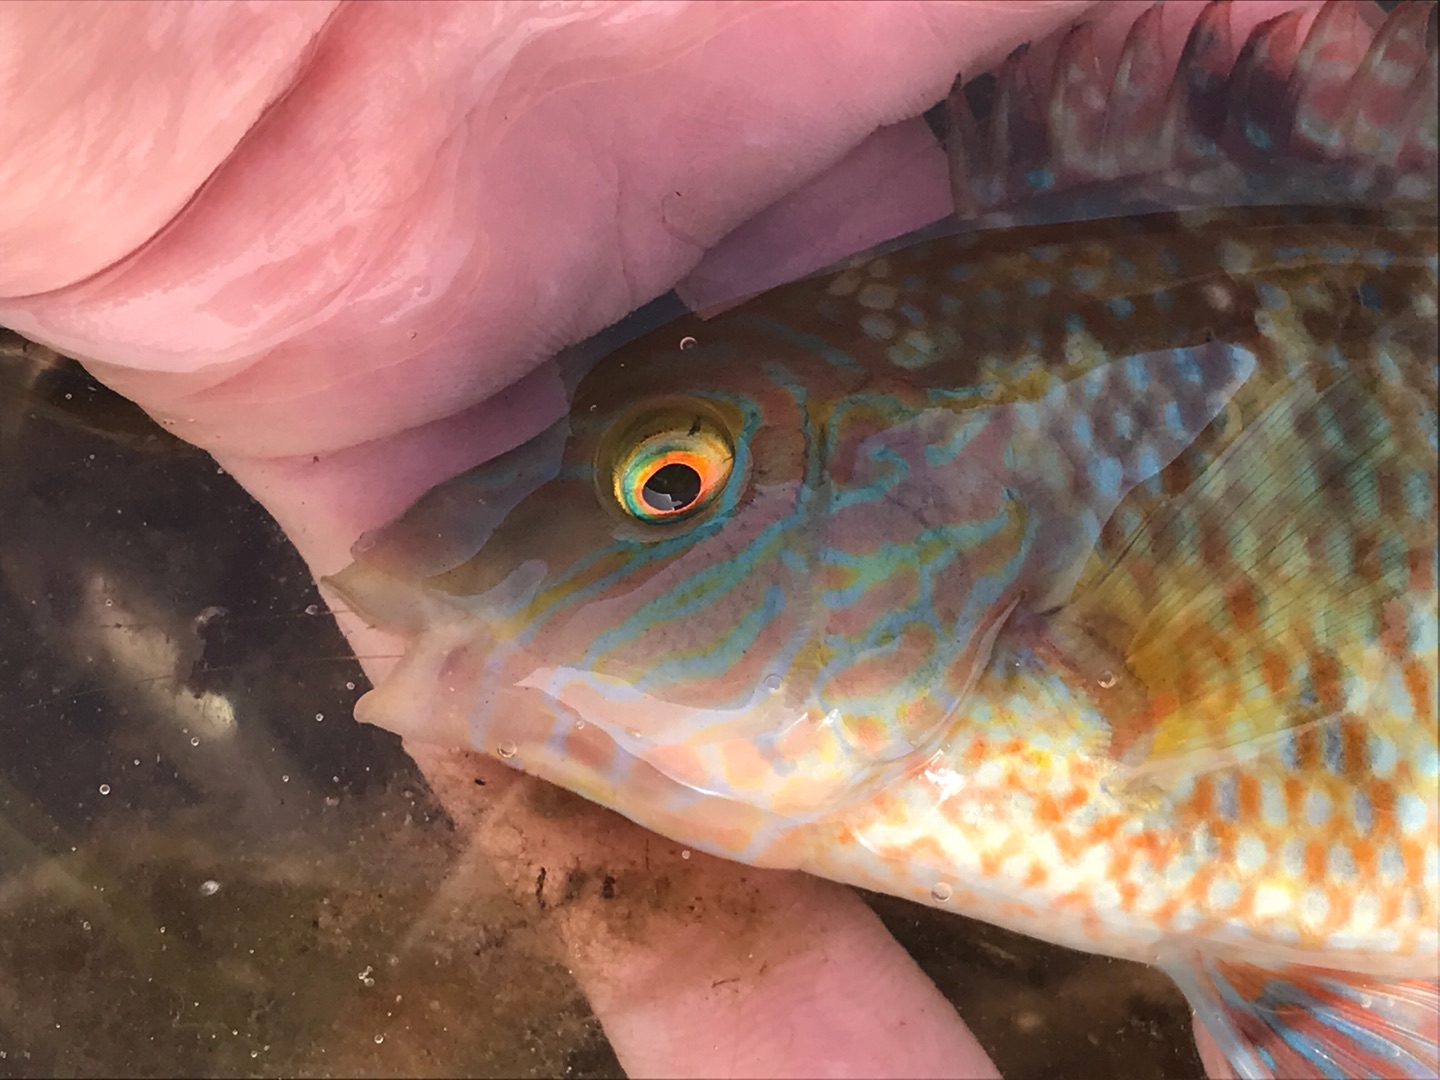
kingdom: Animalia
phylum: Chordata
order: Perciformes
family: Labridae
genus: Symphodus
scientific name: Symphodus melops
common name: Savgylte
